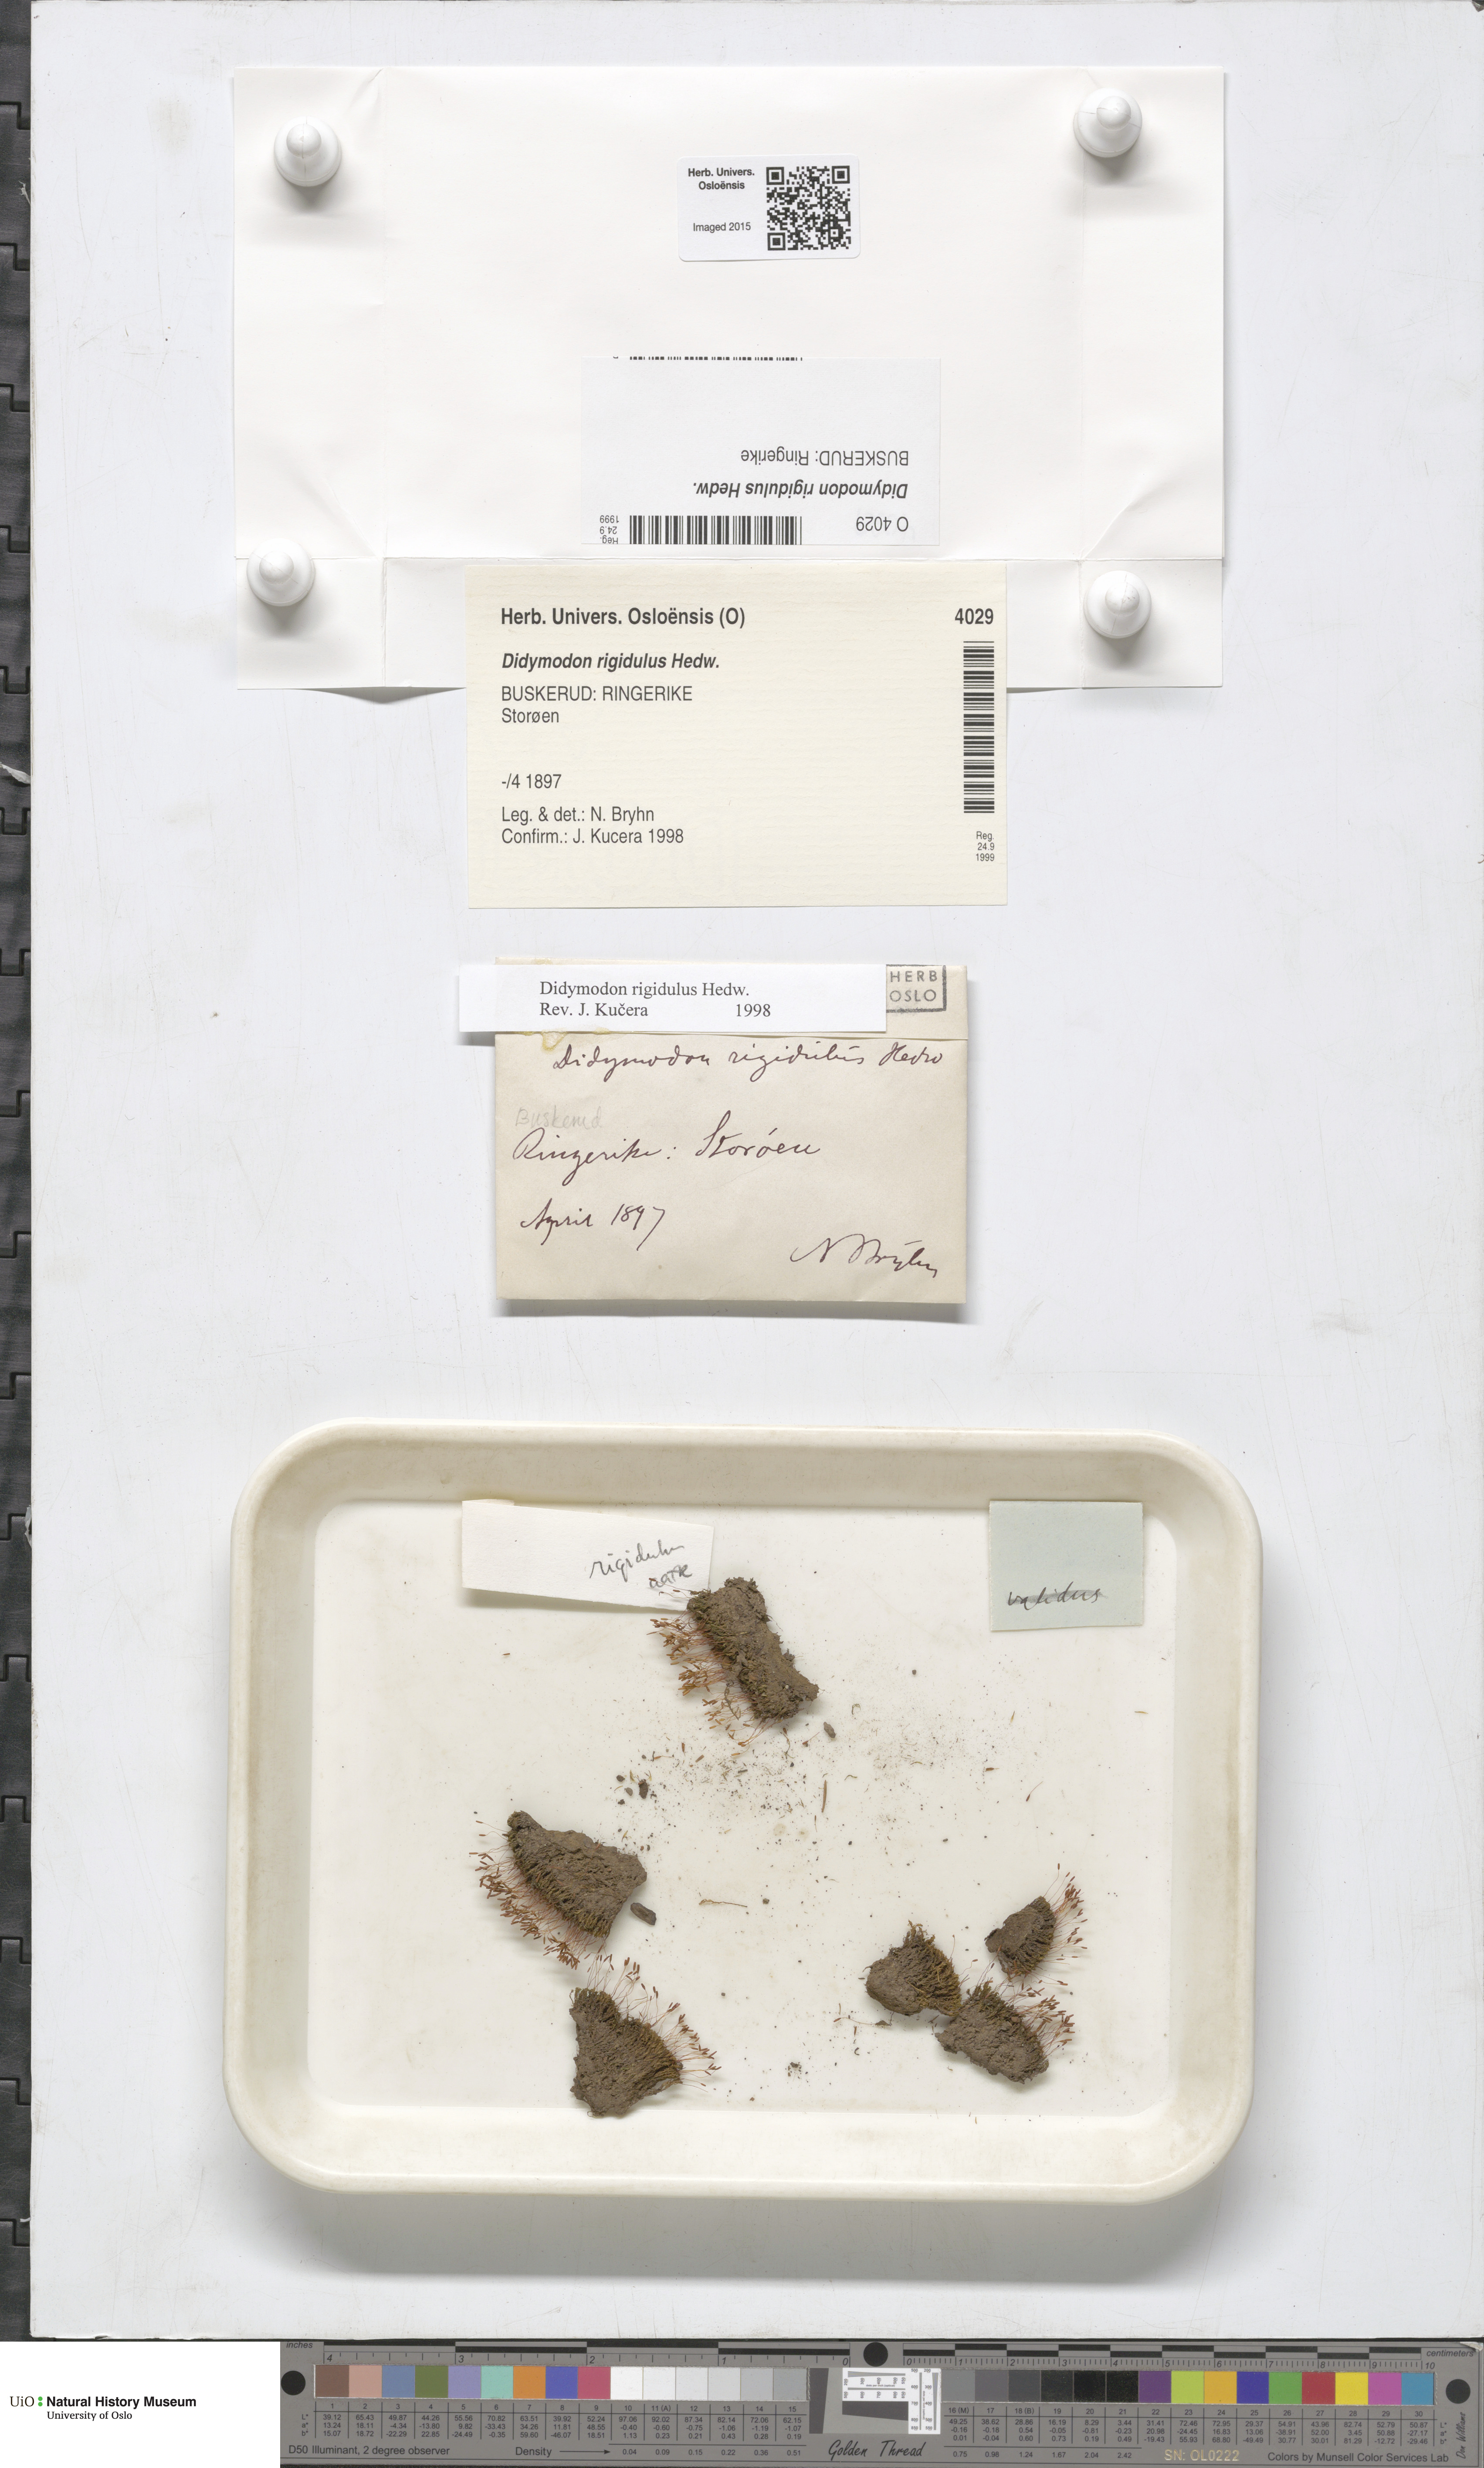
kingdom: Plantae
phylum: Bryophyta
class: Bryopsida
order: Pottiales
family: Pottiaceae
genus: Didymodon
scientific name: Didymodon rigidulus
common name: Rigid beard-moss
